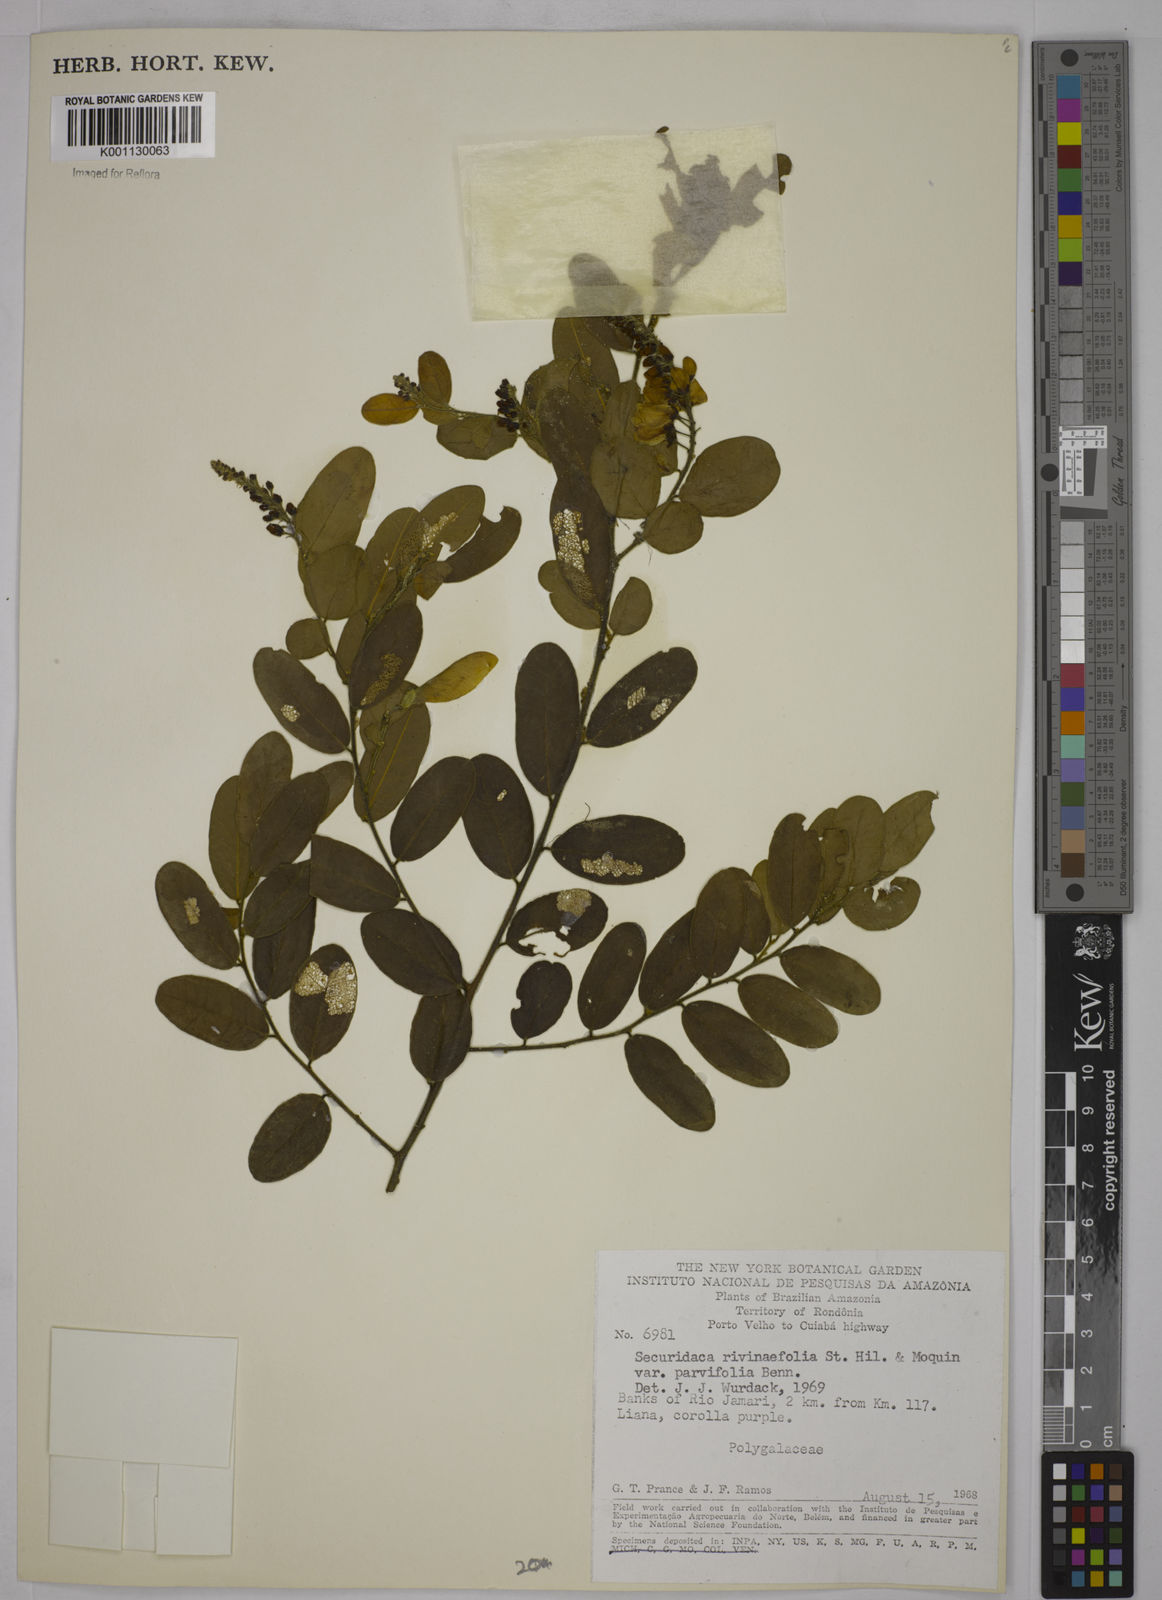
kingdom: Plantae
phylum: Tracheophyta
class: Magnoliopsida
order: Fabales
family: Polygalaceae
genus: Securidaca
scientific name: Securidaca rivinifolia
